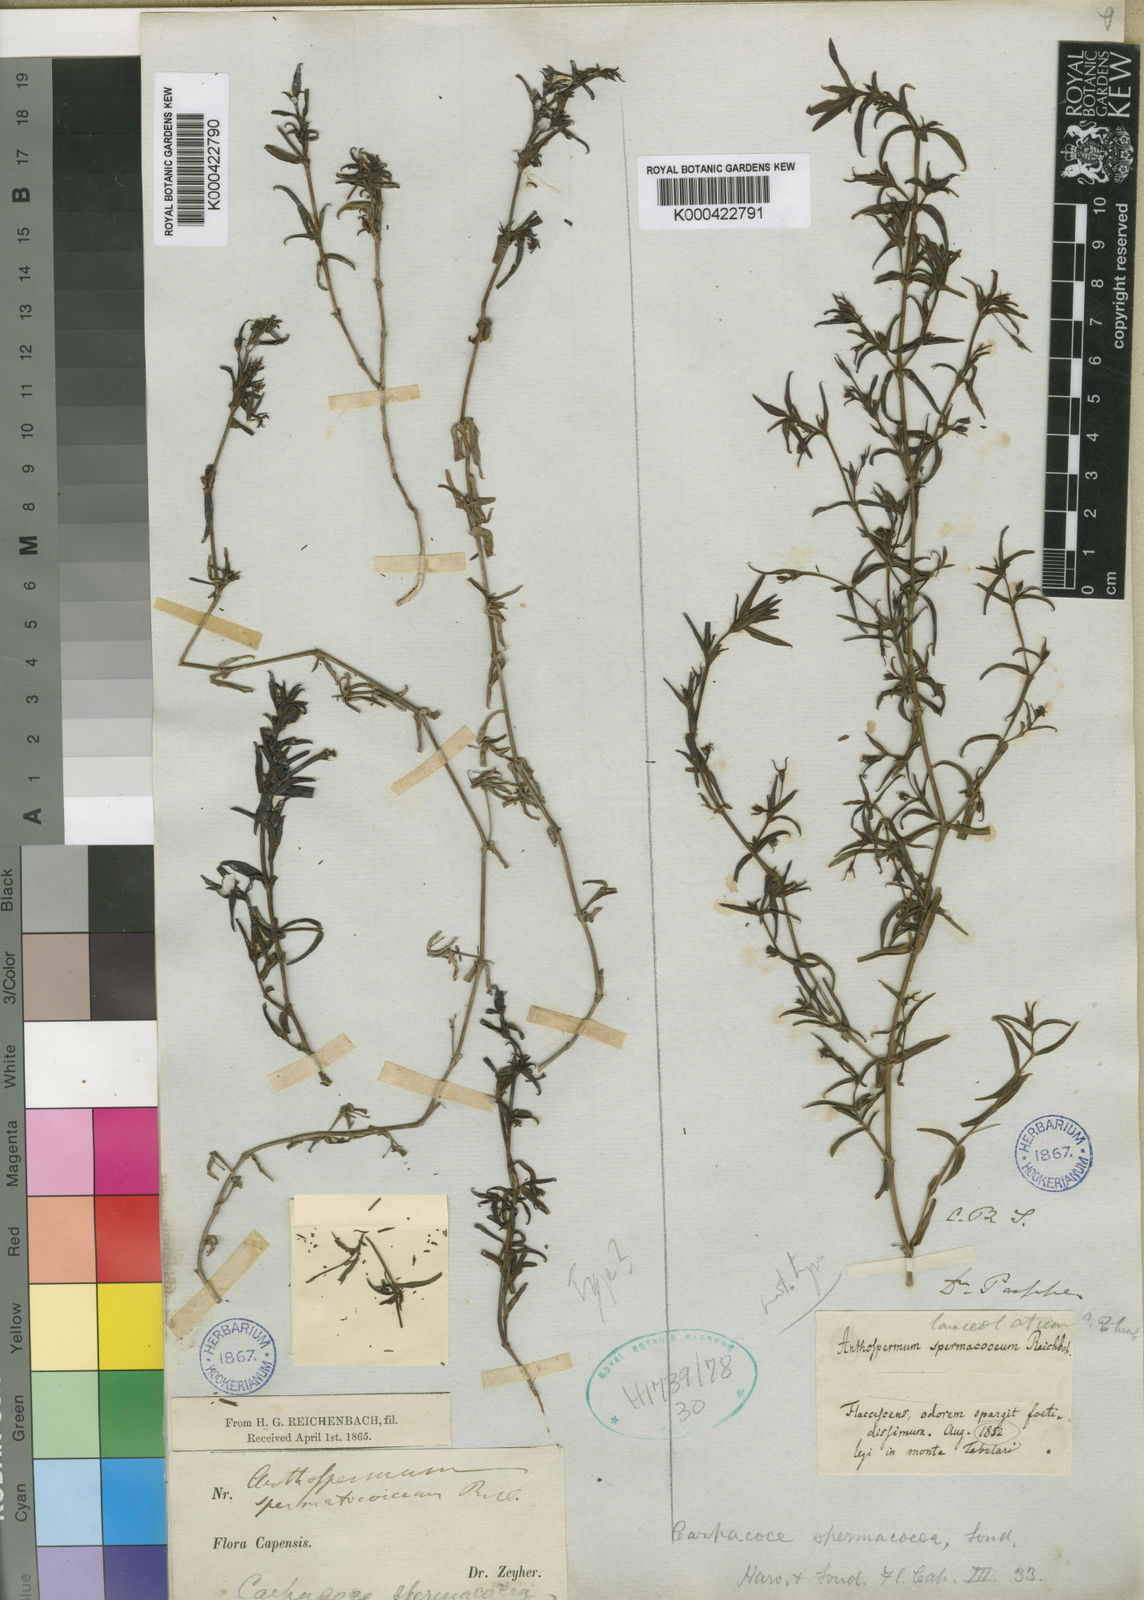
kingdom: Plantae
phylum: Tracheophyta
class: Magnoliopsida
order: Gentianales
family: Rubiaceae
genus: Carpacoce
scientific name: Carpacoce spermacocea
